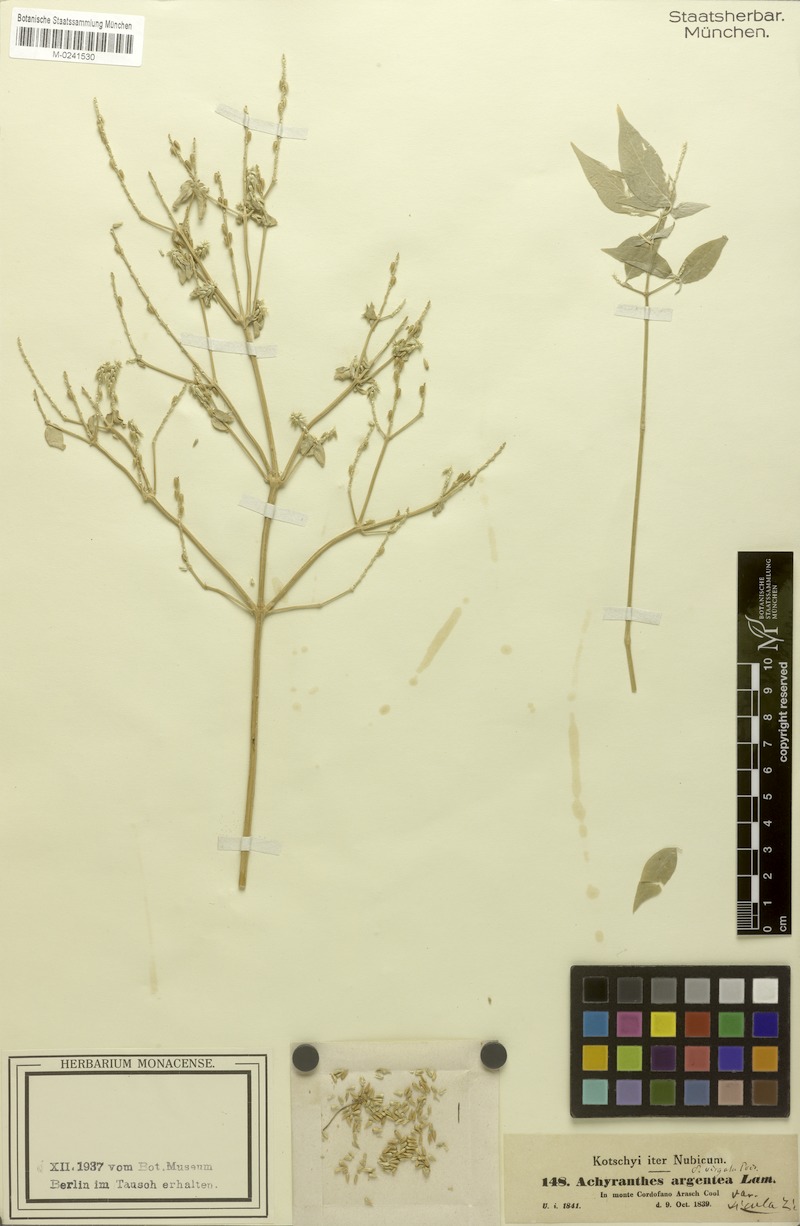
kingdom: Plantae
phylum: Tracheophyta
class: Magnoliopsida
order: Caryophyllales
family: Amaranthaceae
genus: Achyranthes
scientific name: Achyranthes aspera
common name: Devil's horsewhip
